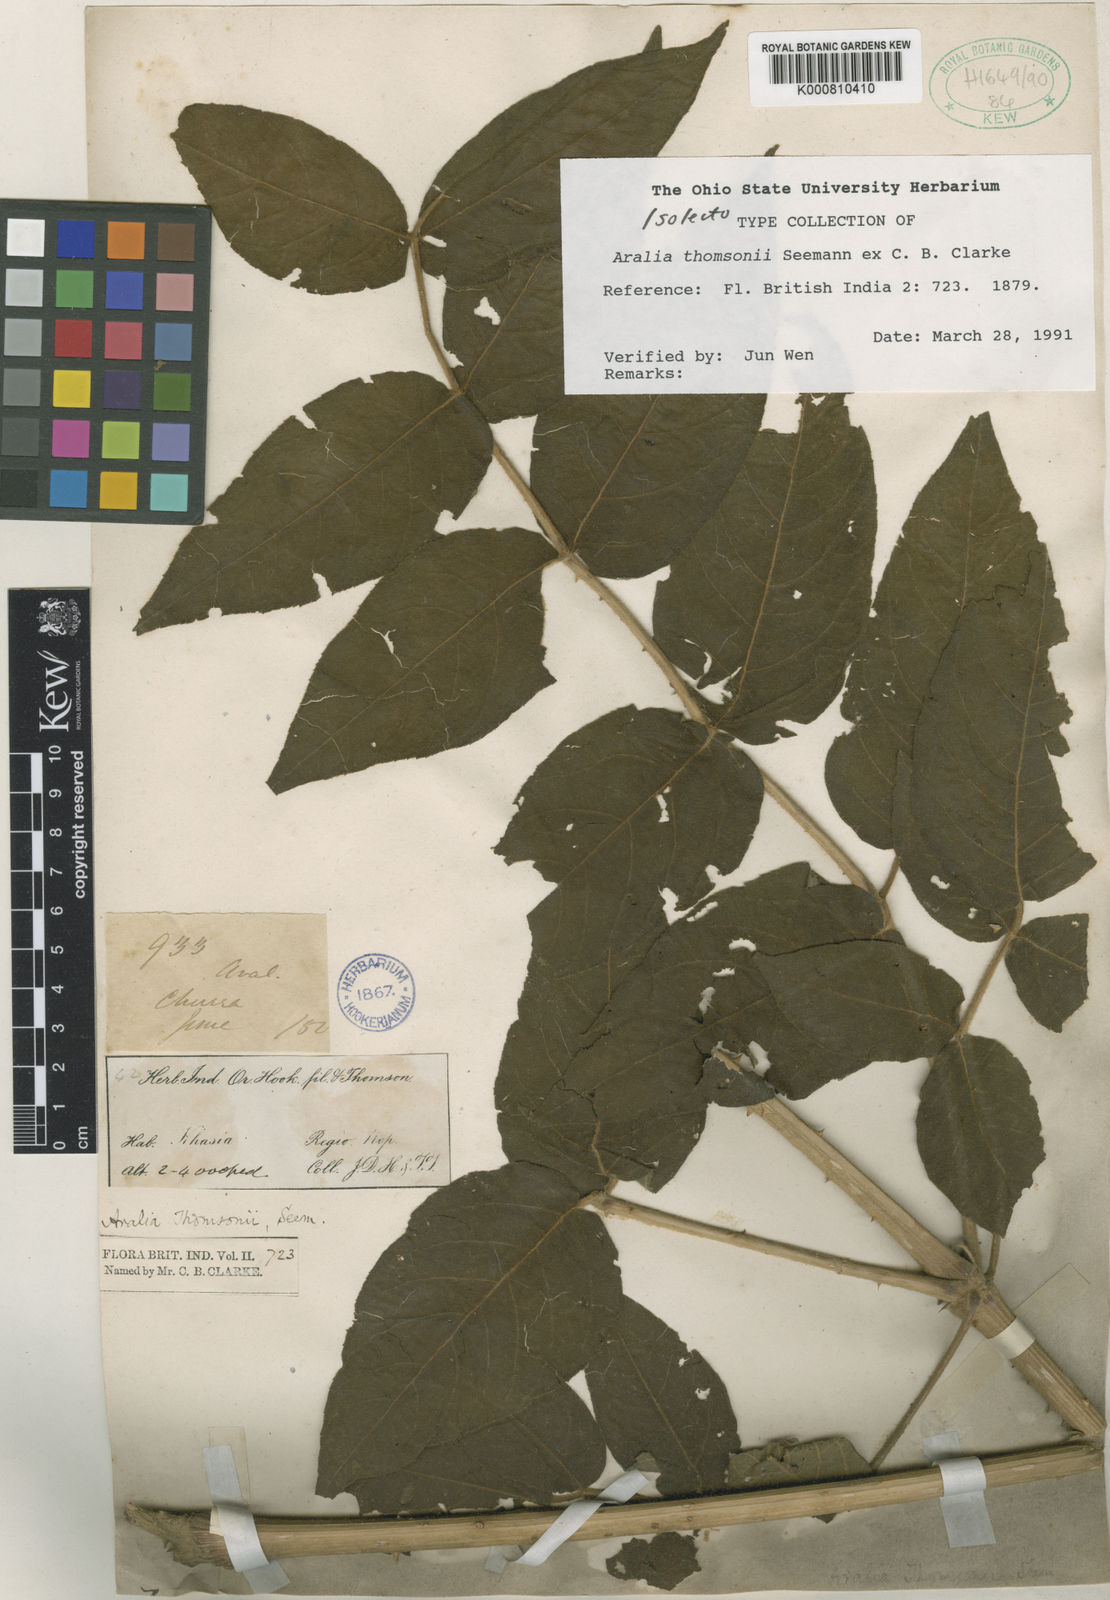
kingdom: Plantae
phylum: Tracheophyta
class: Magnoliopsida
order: Apiales
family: Araliaceae
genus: Aralia
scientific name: Aralia thomsonii
